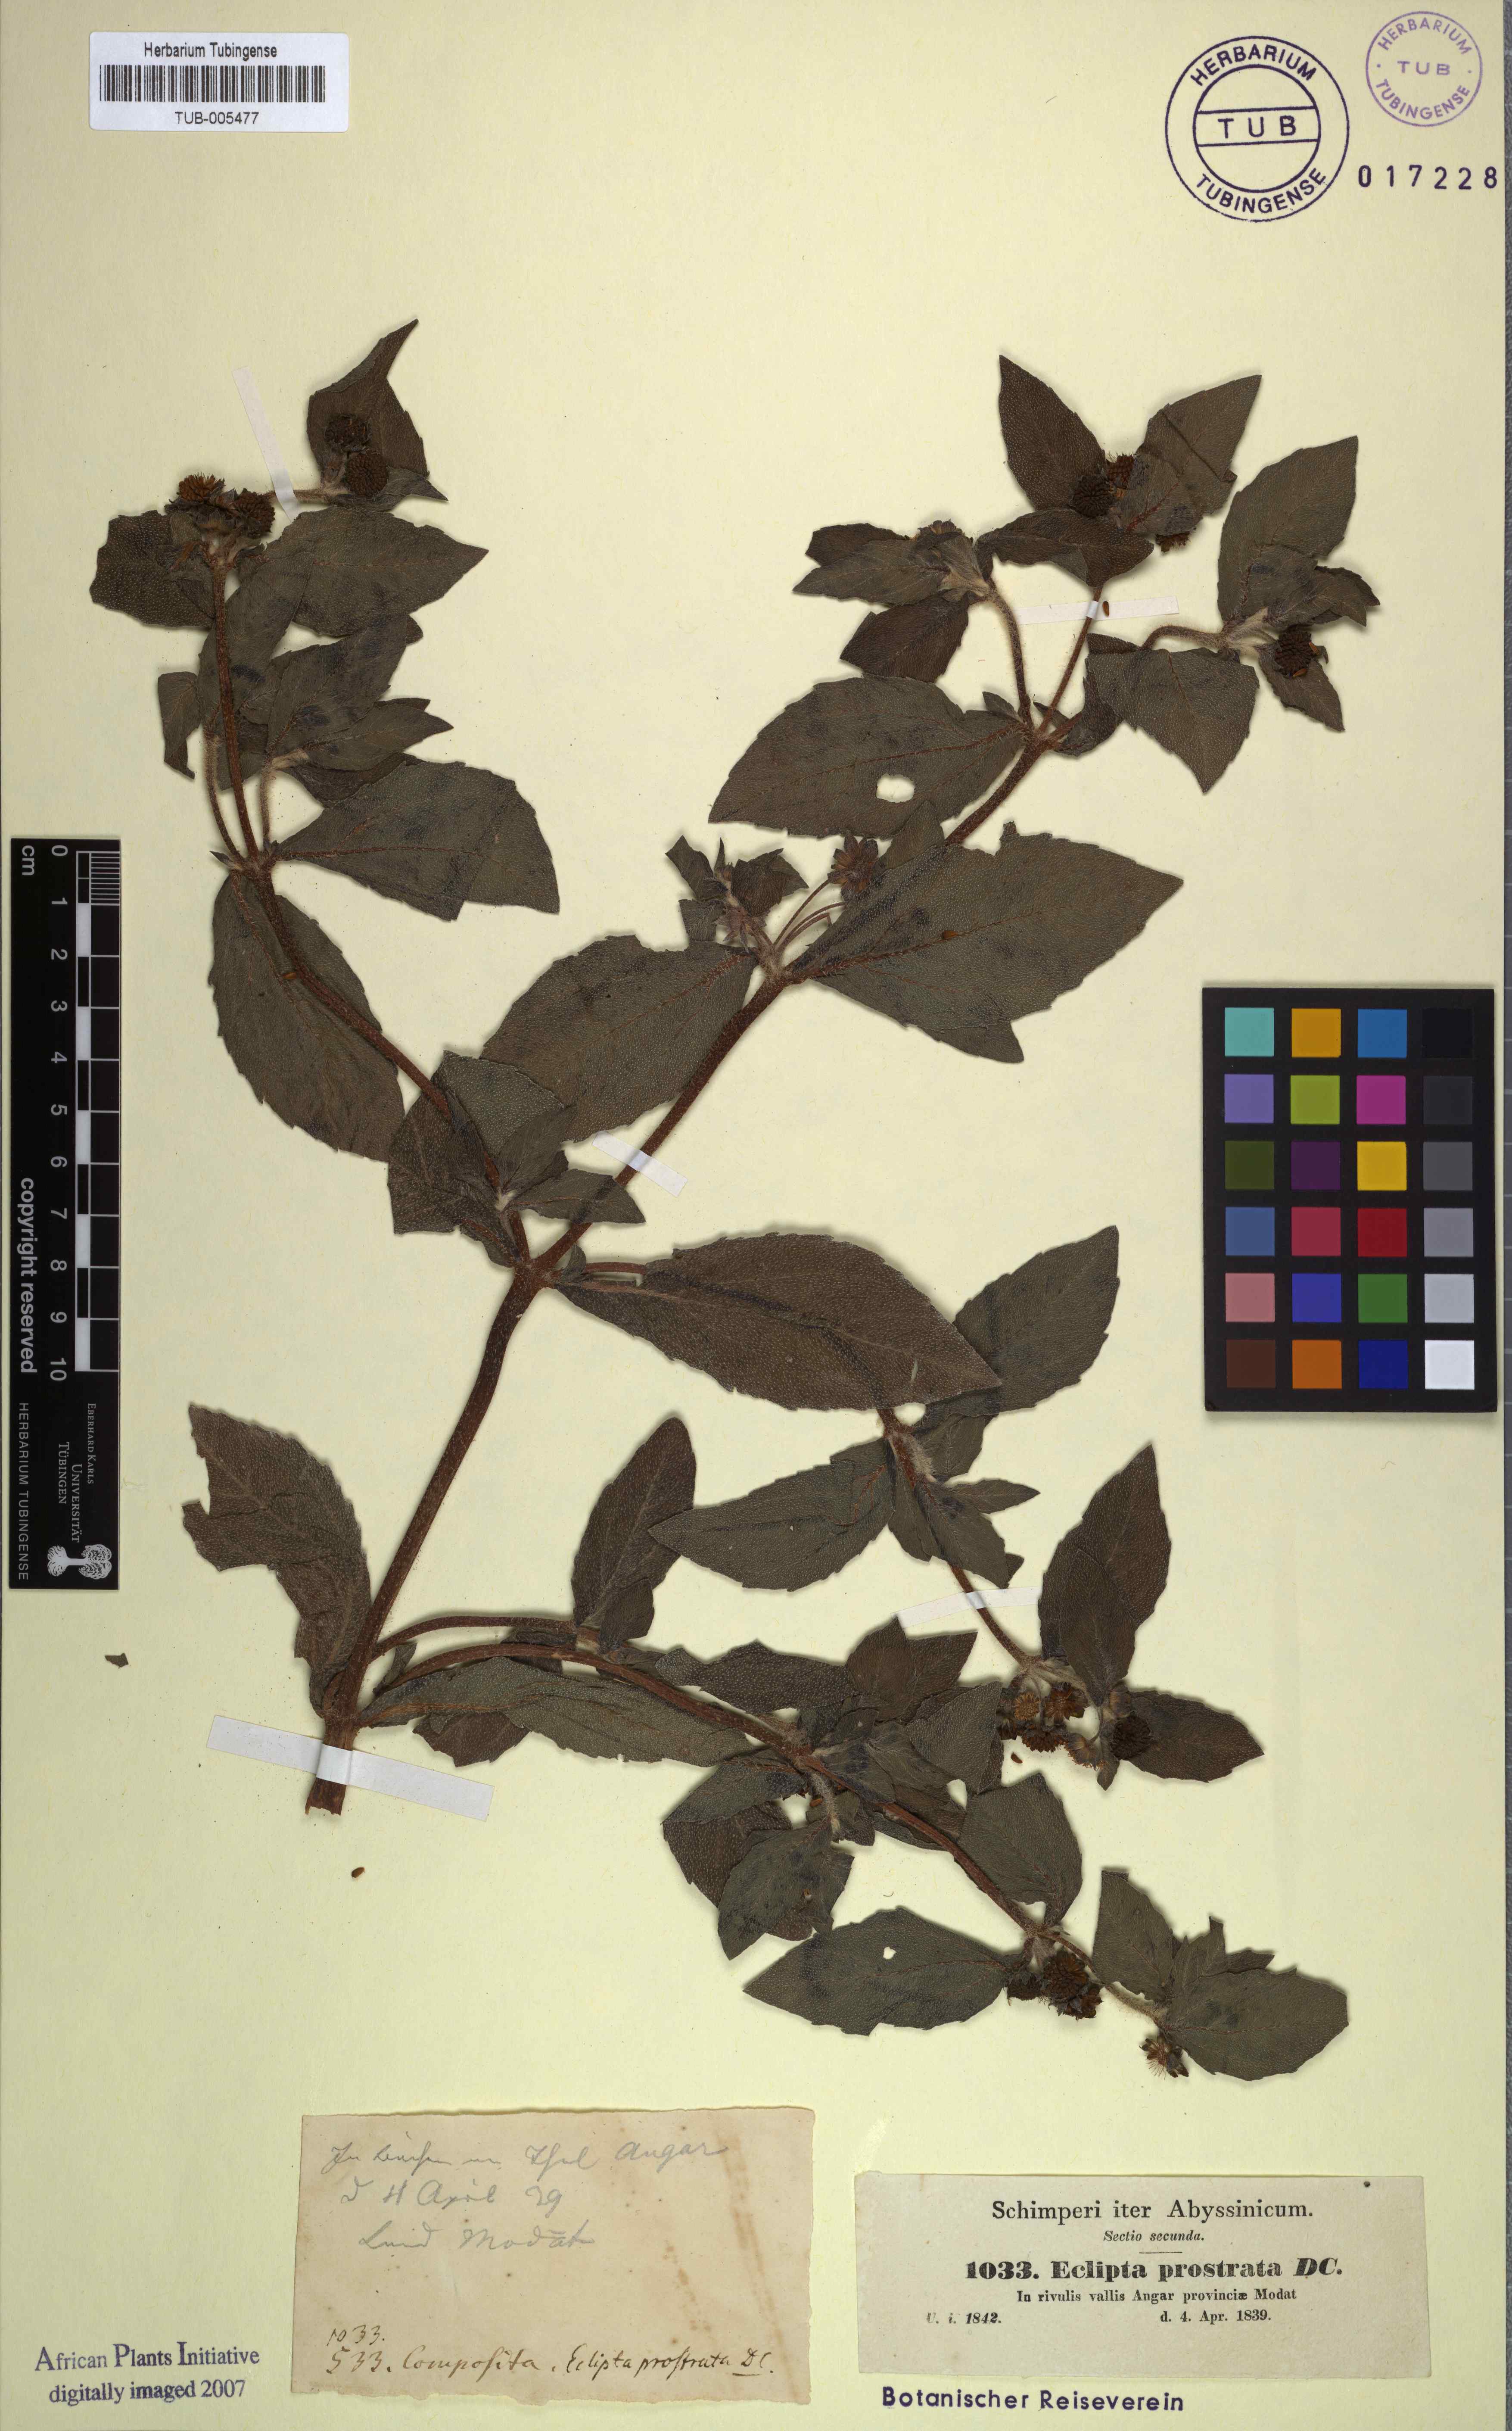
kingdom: Plantae
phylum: Tracheophyta
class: Magnoliopsida
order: Asterales
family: Asteraceae
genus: Eclipta
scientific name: Eclipta prostrata
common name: False daisy
